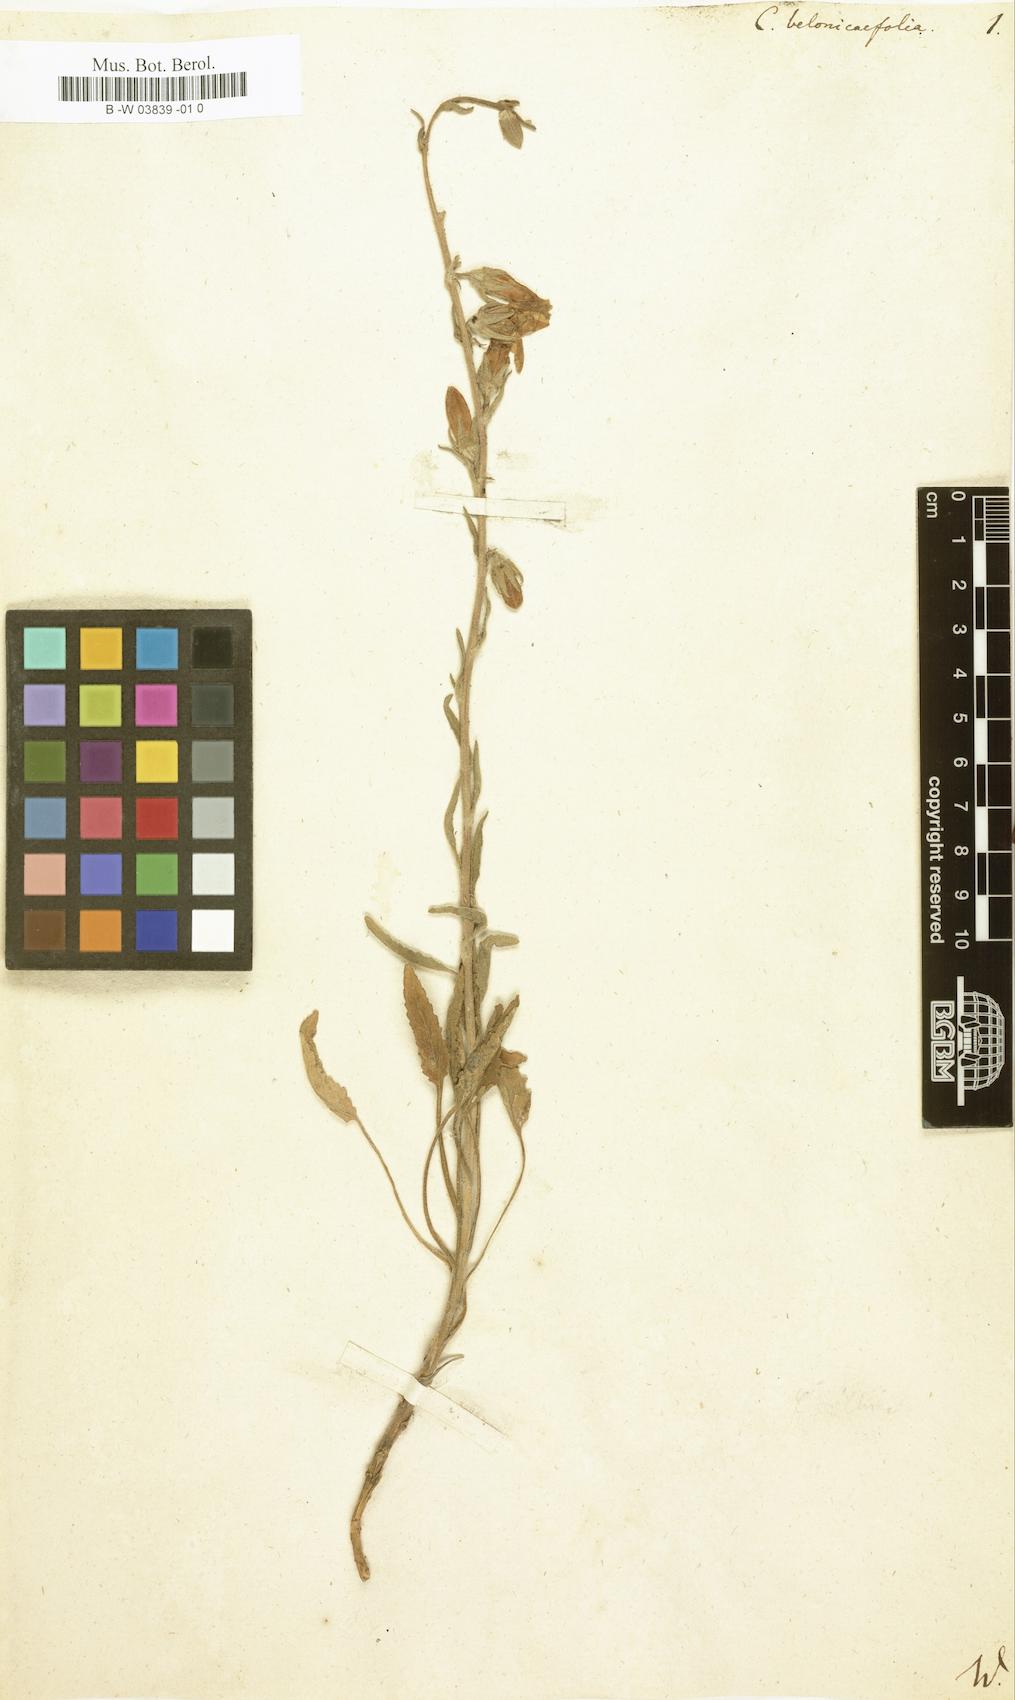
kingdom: Plantae
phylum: Tracheophyta
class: Magnoliopsida
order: Asterales
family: Campanulaceae
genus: Campanula
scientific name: Campanula betonicifolia
